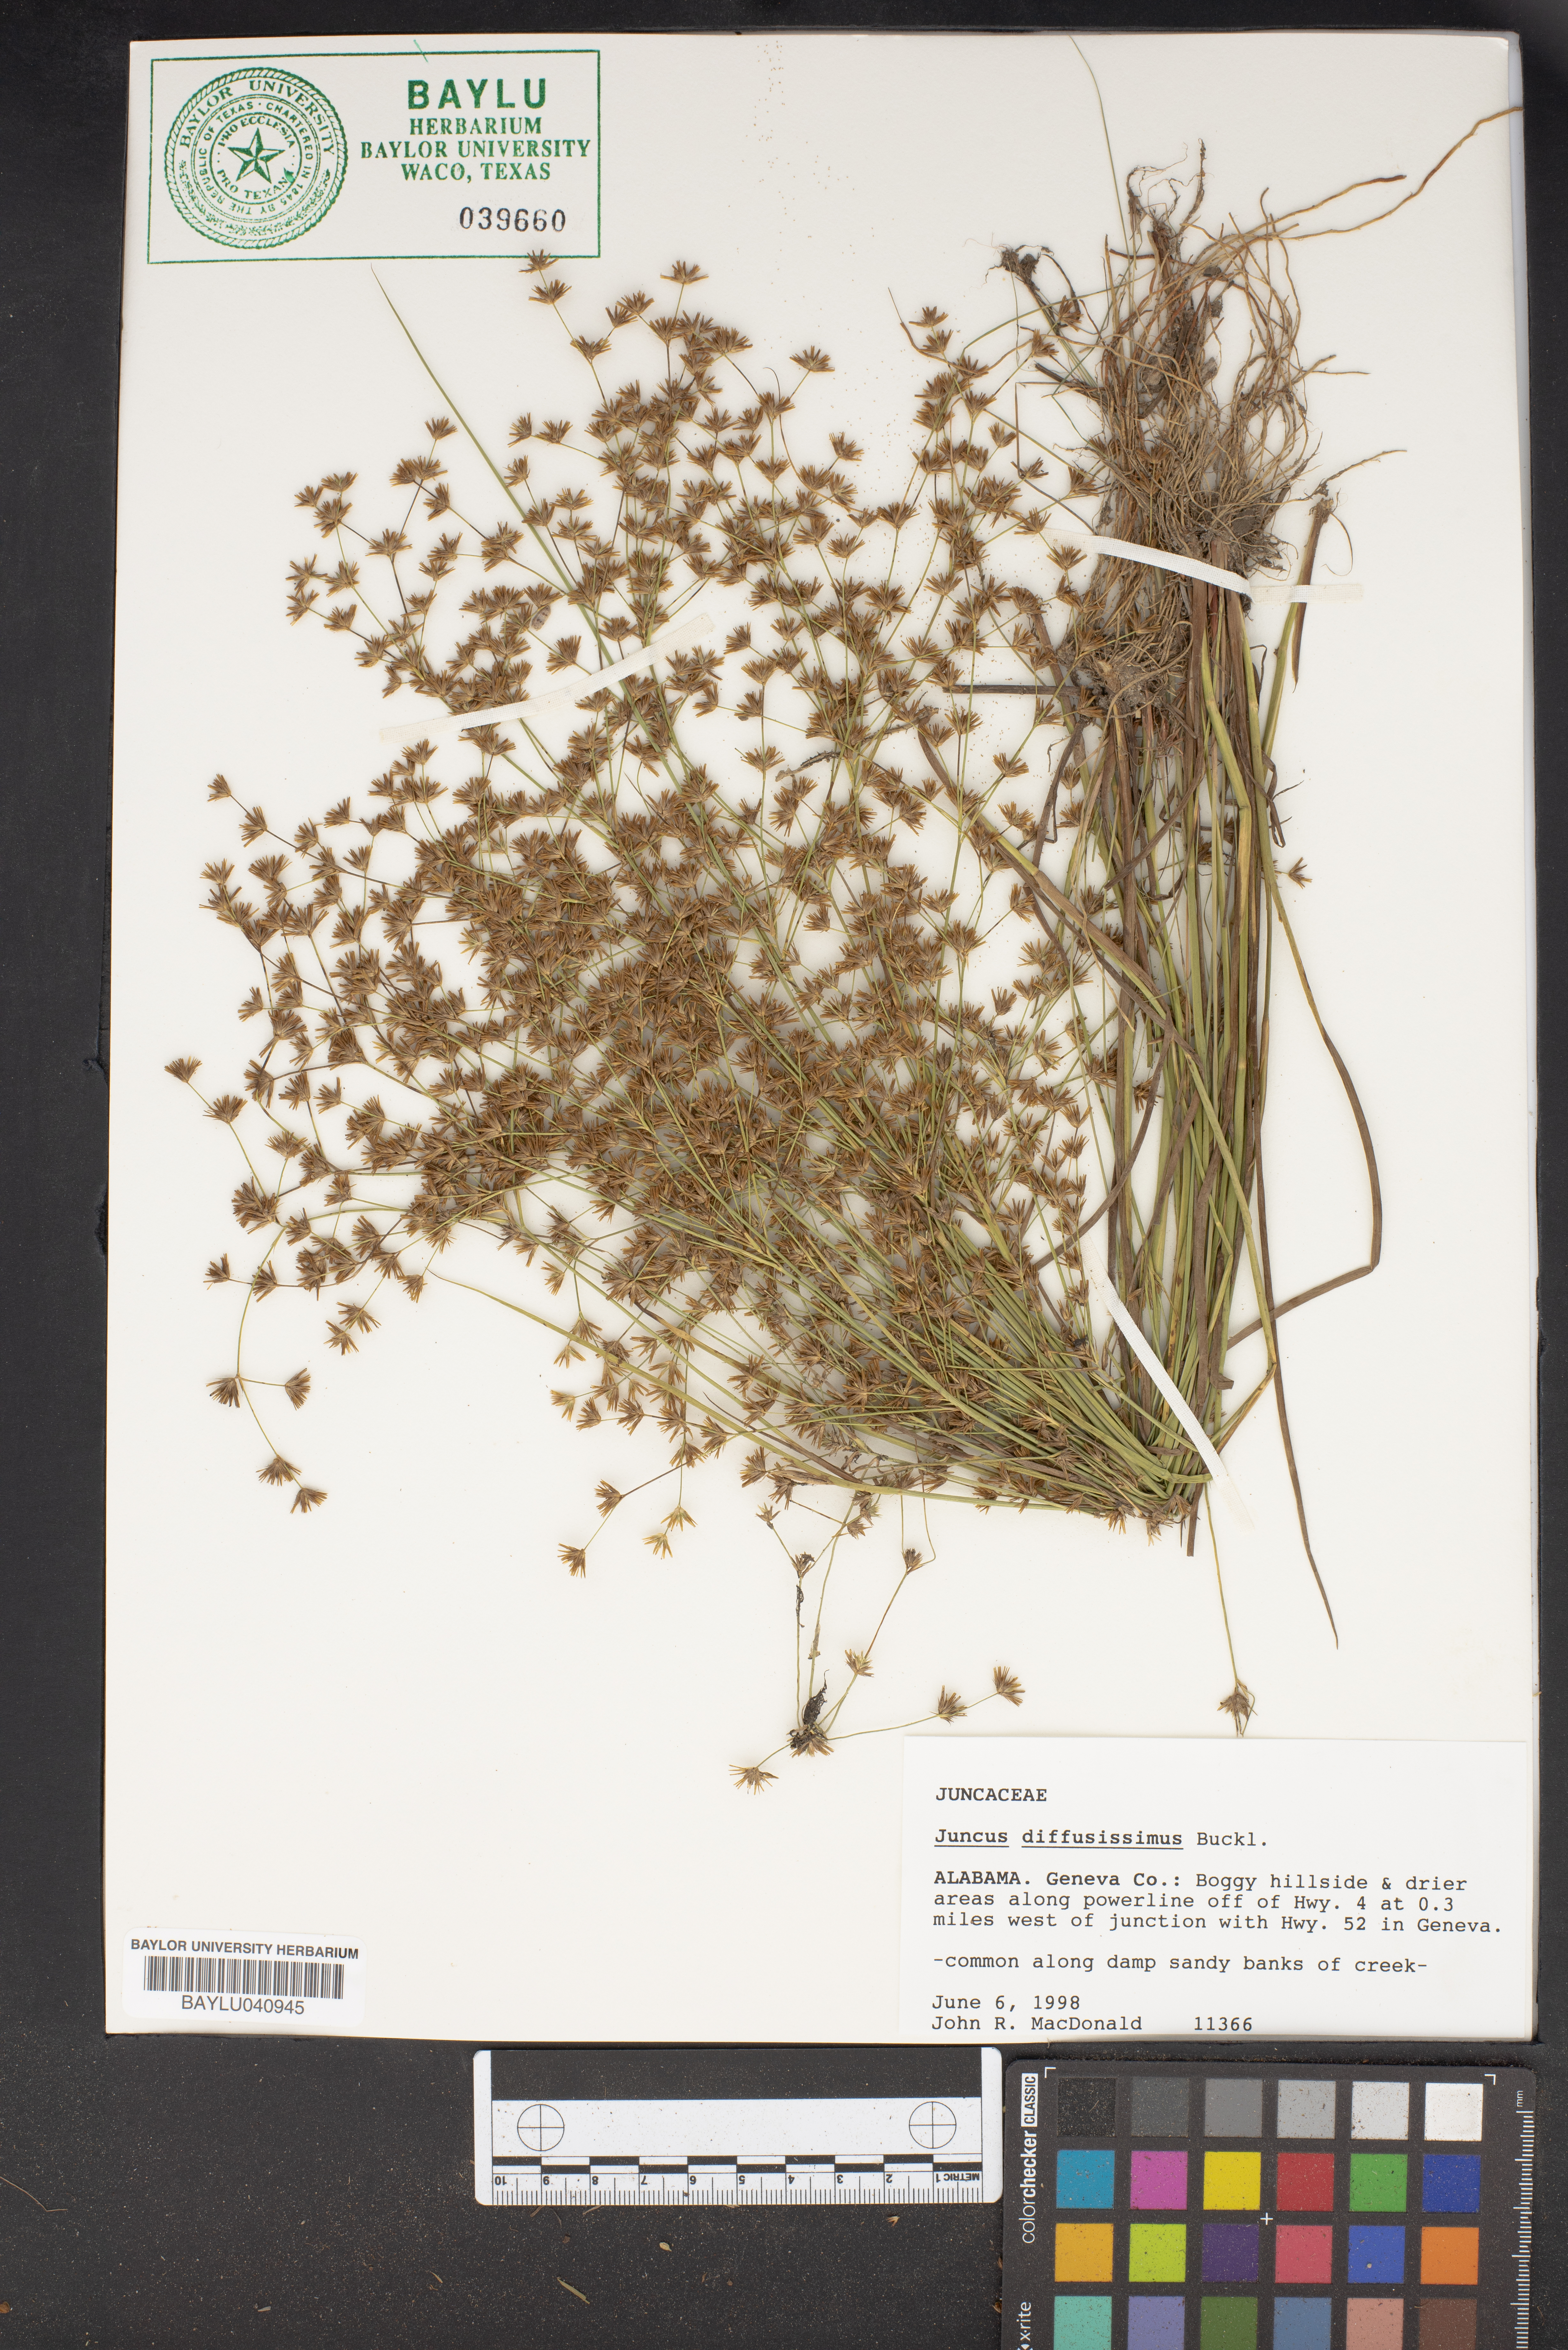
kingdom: Plantae
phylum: Tracheophyta
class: Liliopsida
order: Poales
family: Juncaceae
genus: Juncus
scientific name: Juncus diffusissimus
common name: Slimpod rush
